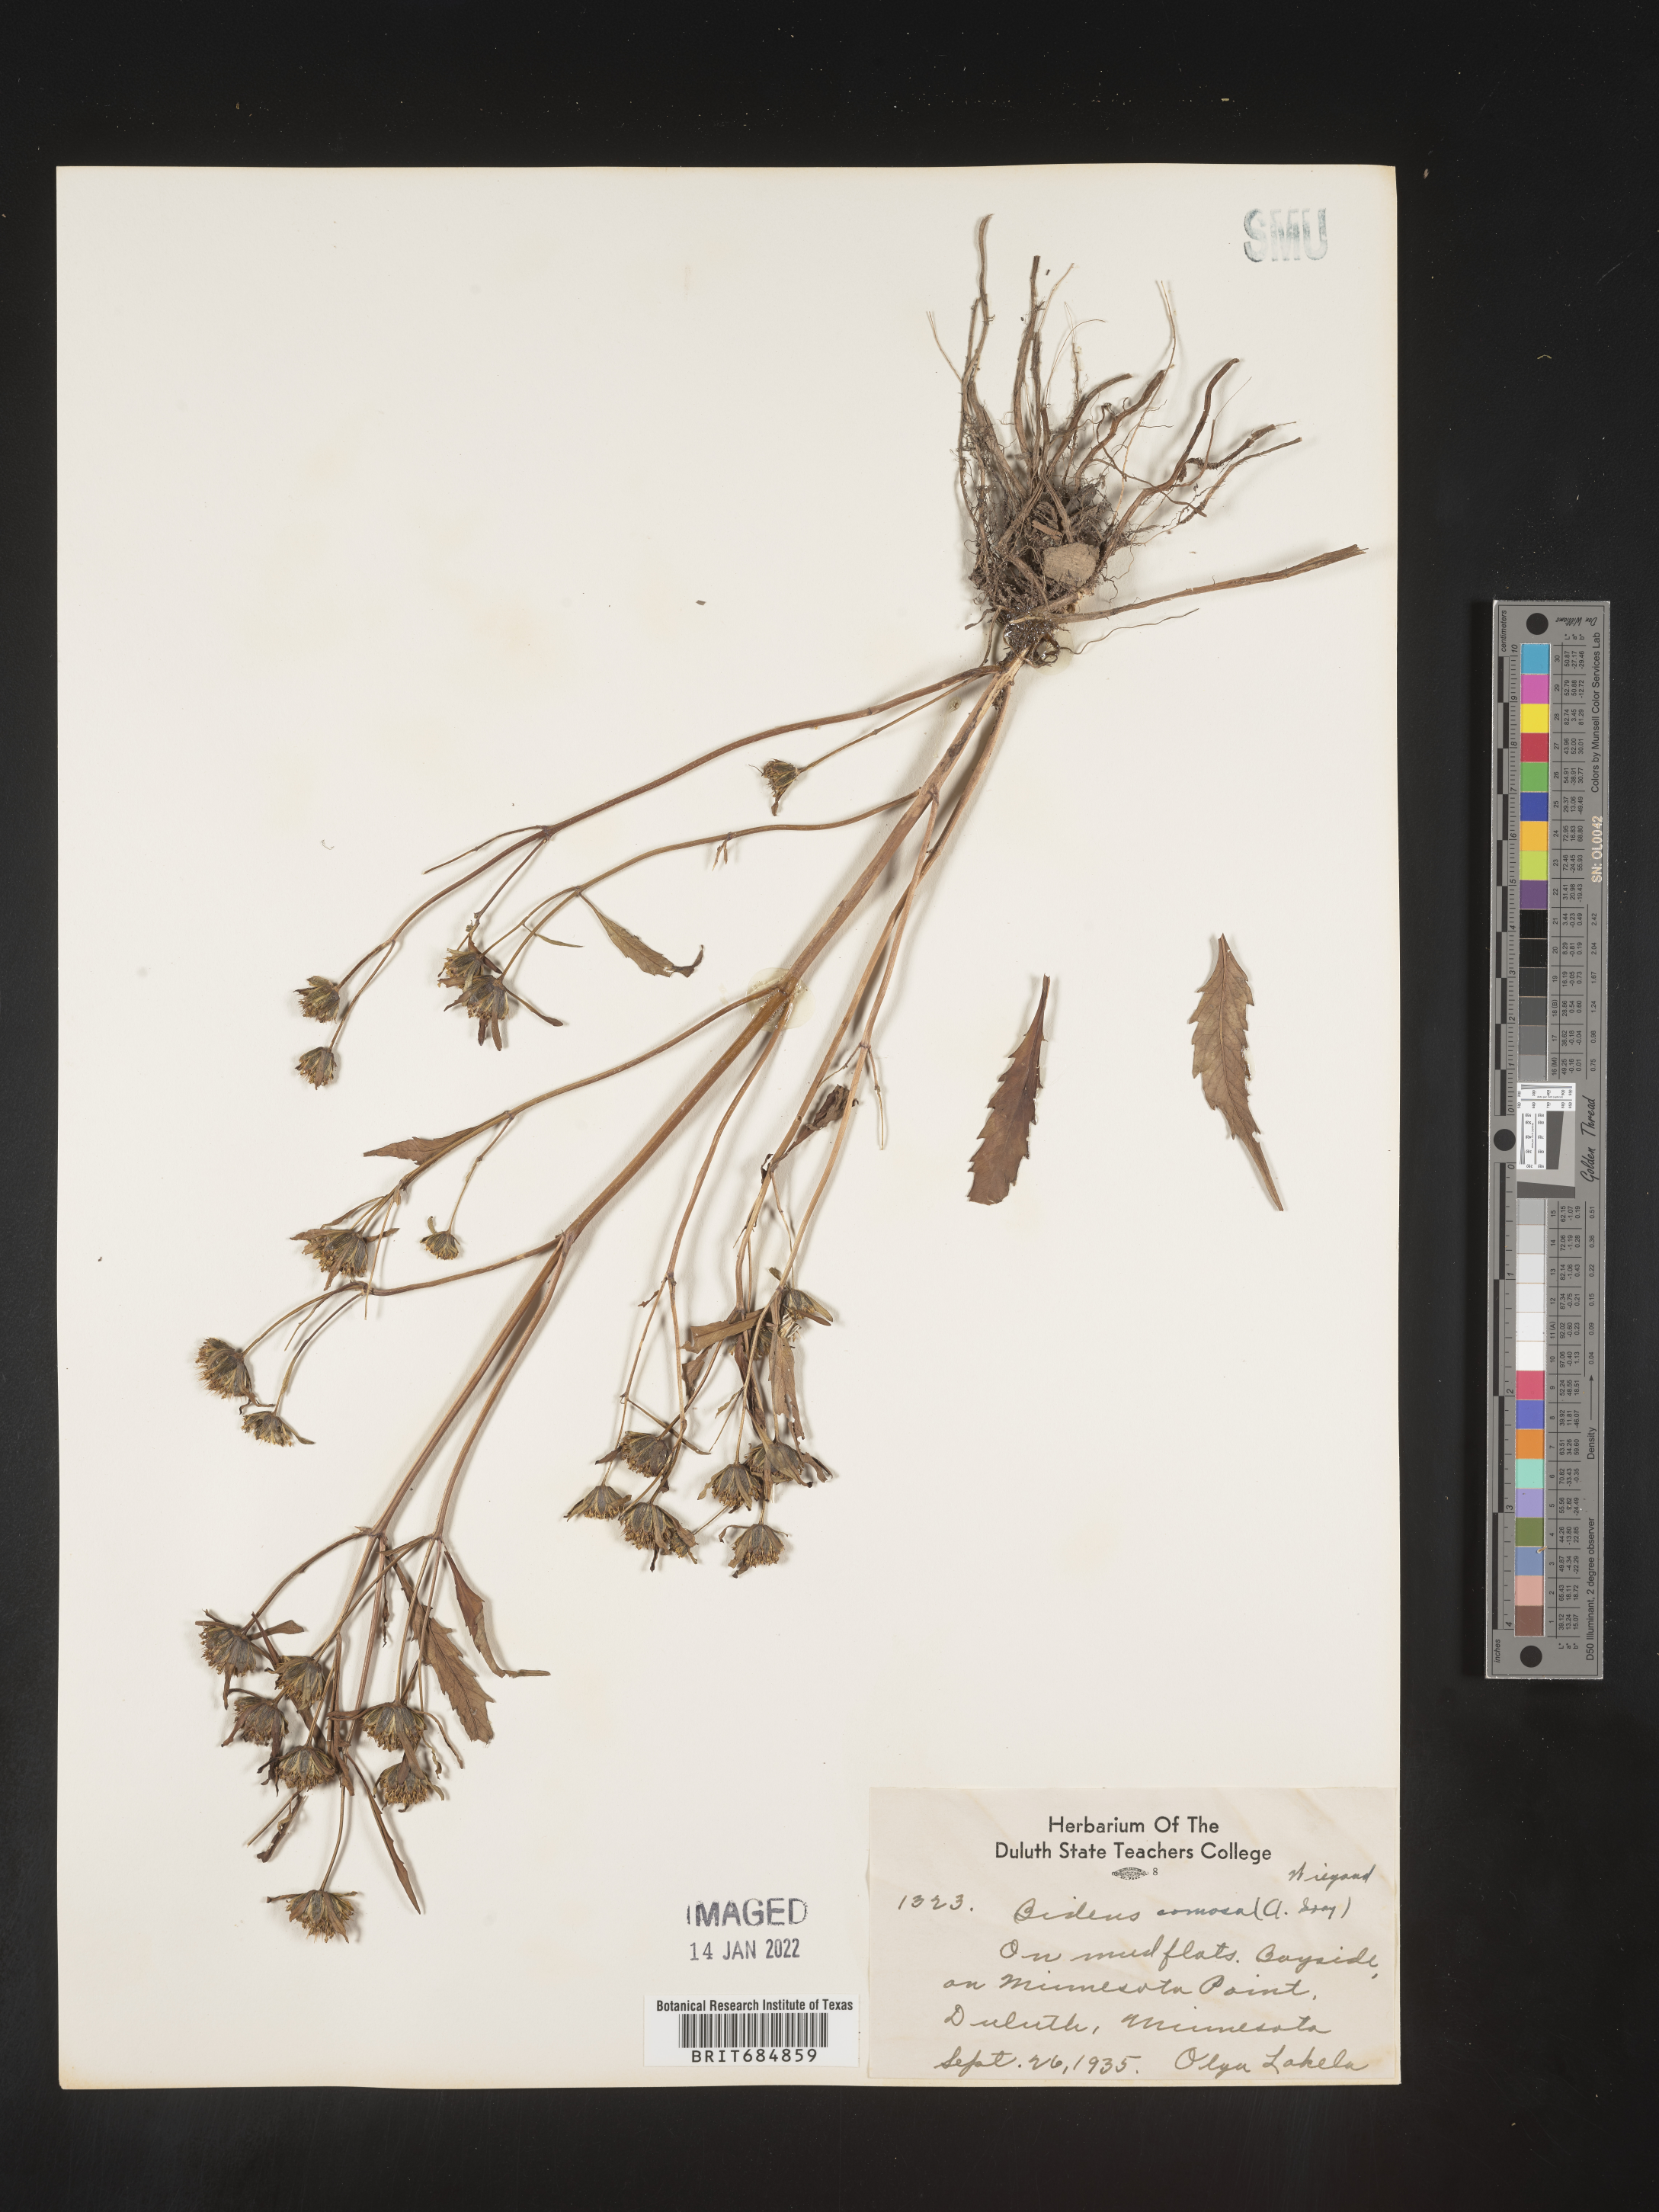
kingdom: Plantae
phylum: Tracheophyta
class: Magnoliopsida
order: Asterales
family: Asteraceae
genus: Bidens
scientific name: Bidens tripartita
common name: Trifid bur-marigold
